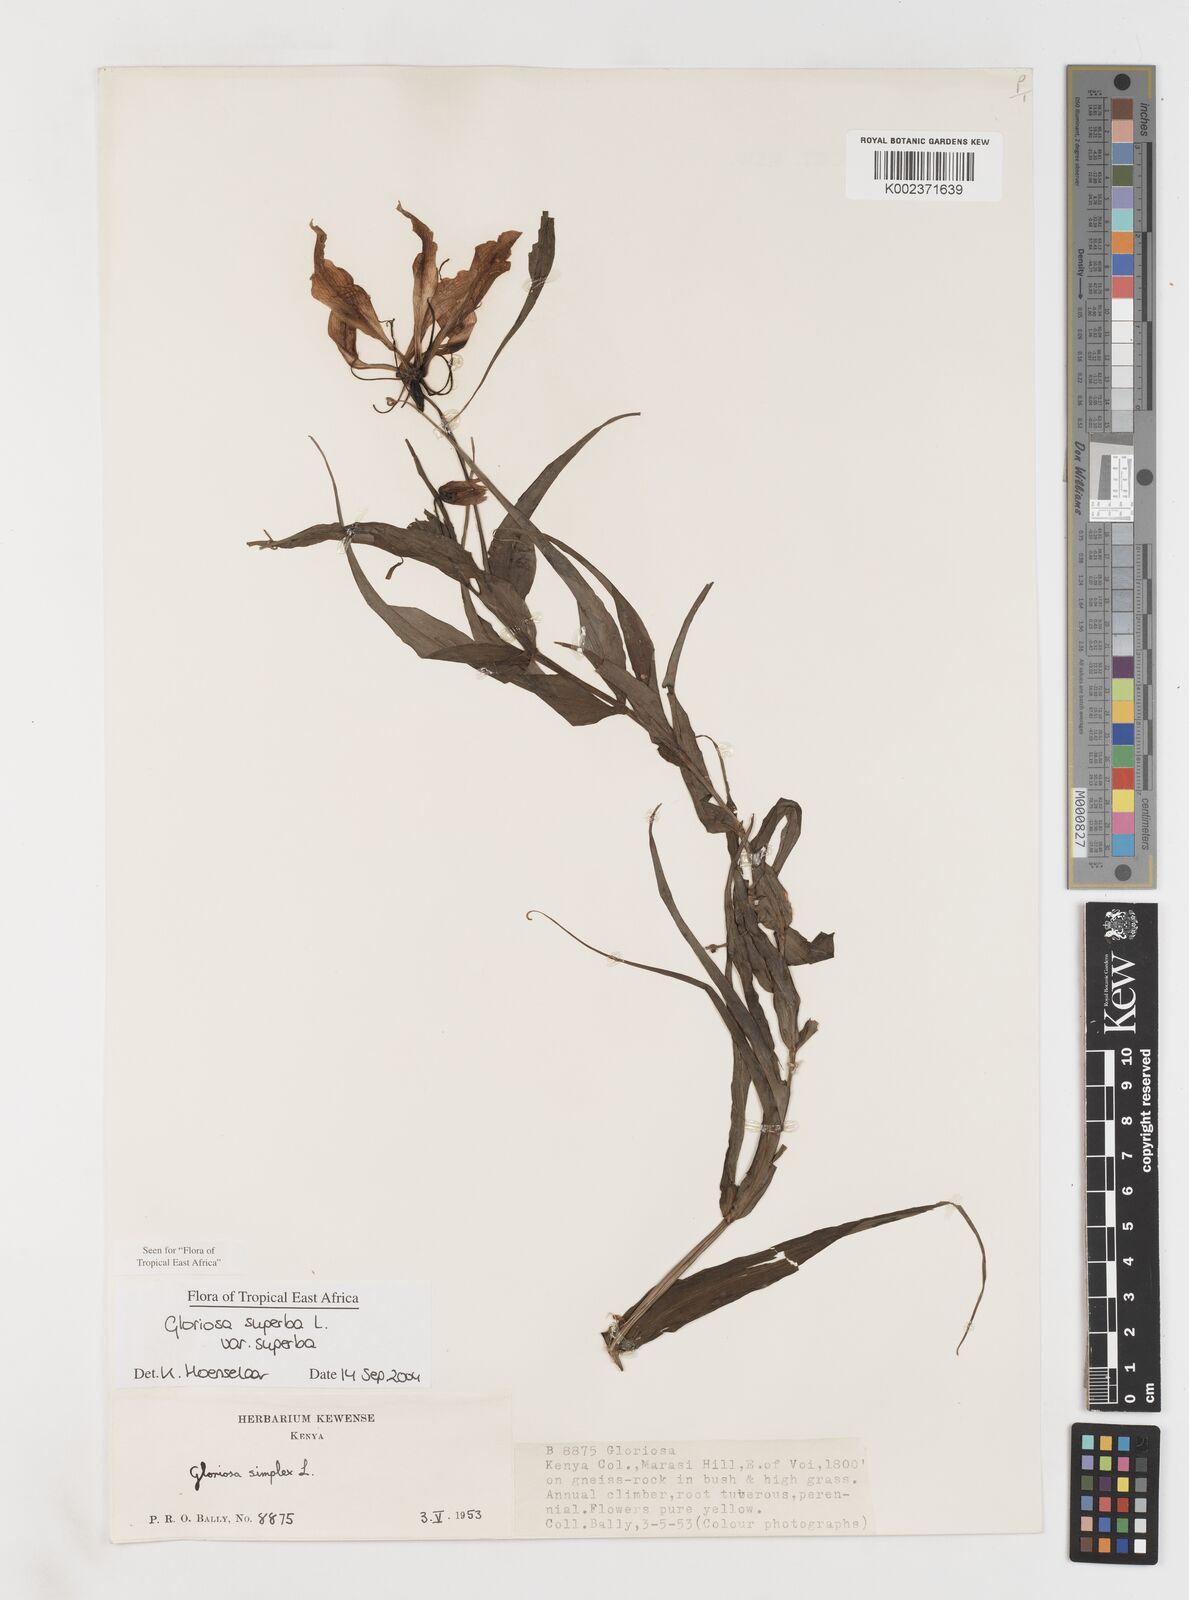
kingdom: Plantae
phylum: Tracheophyta
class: Liliopsida
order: Liliales
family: Colchicaceae
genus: Gloriosa
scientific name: Gloriosa simplex
